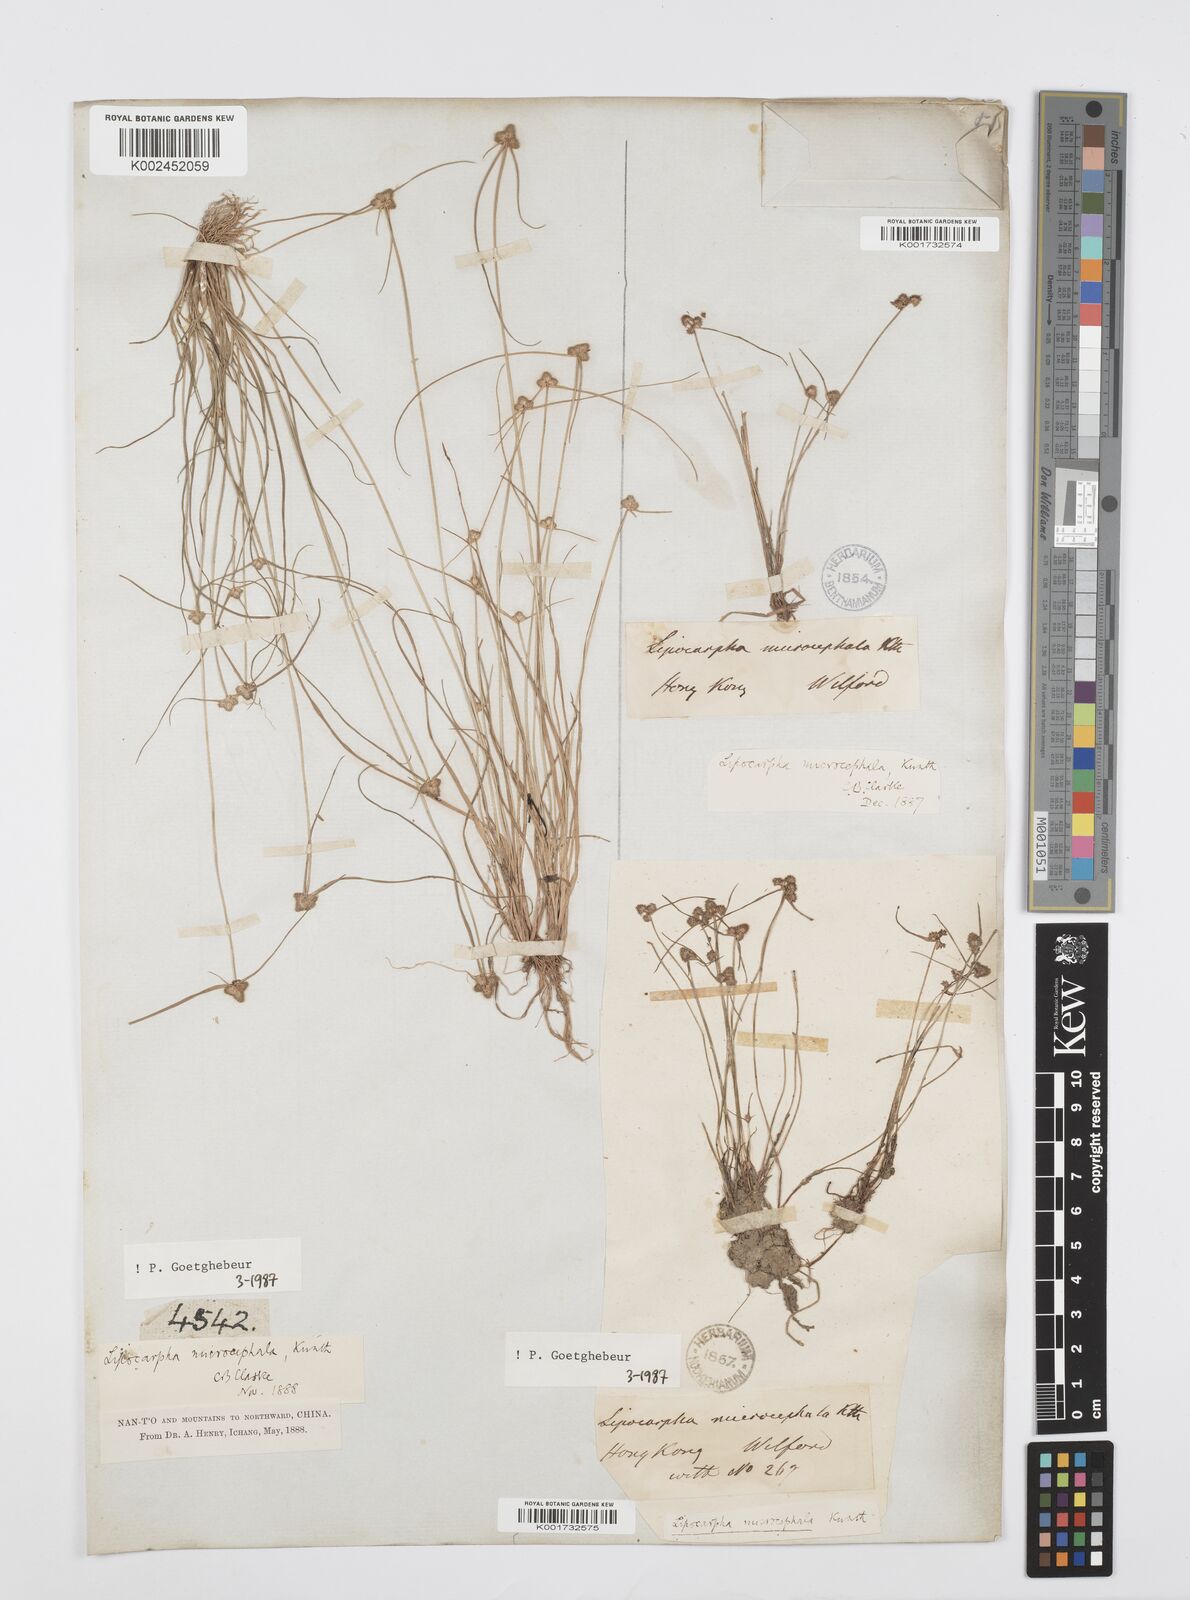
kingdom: Plantae
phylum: Tracheophyta
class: Liliopsida
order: Poales
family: Cyperaceae
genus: Cyperus
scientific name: Cyperus microcephalus
